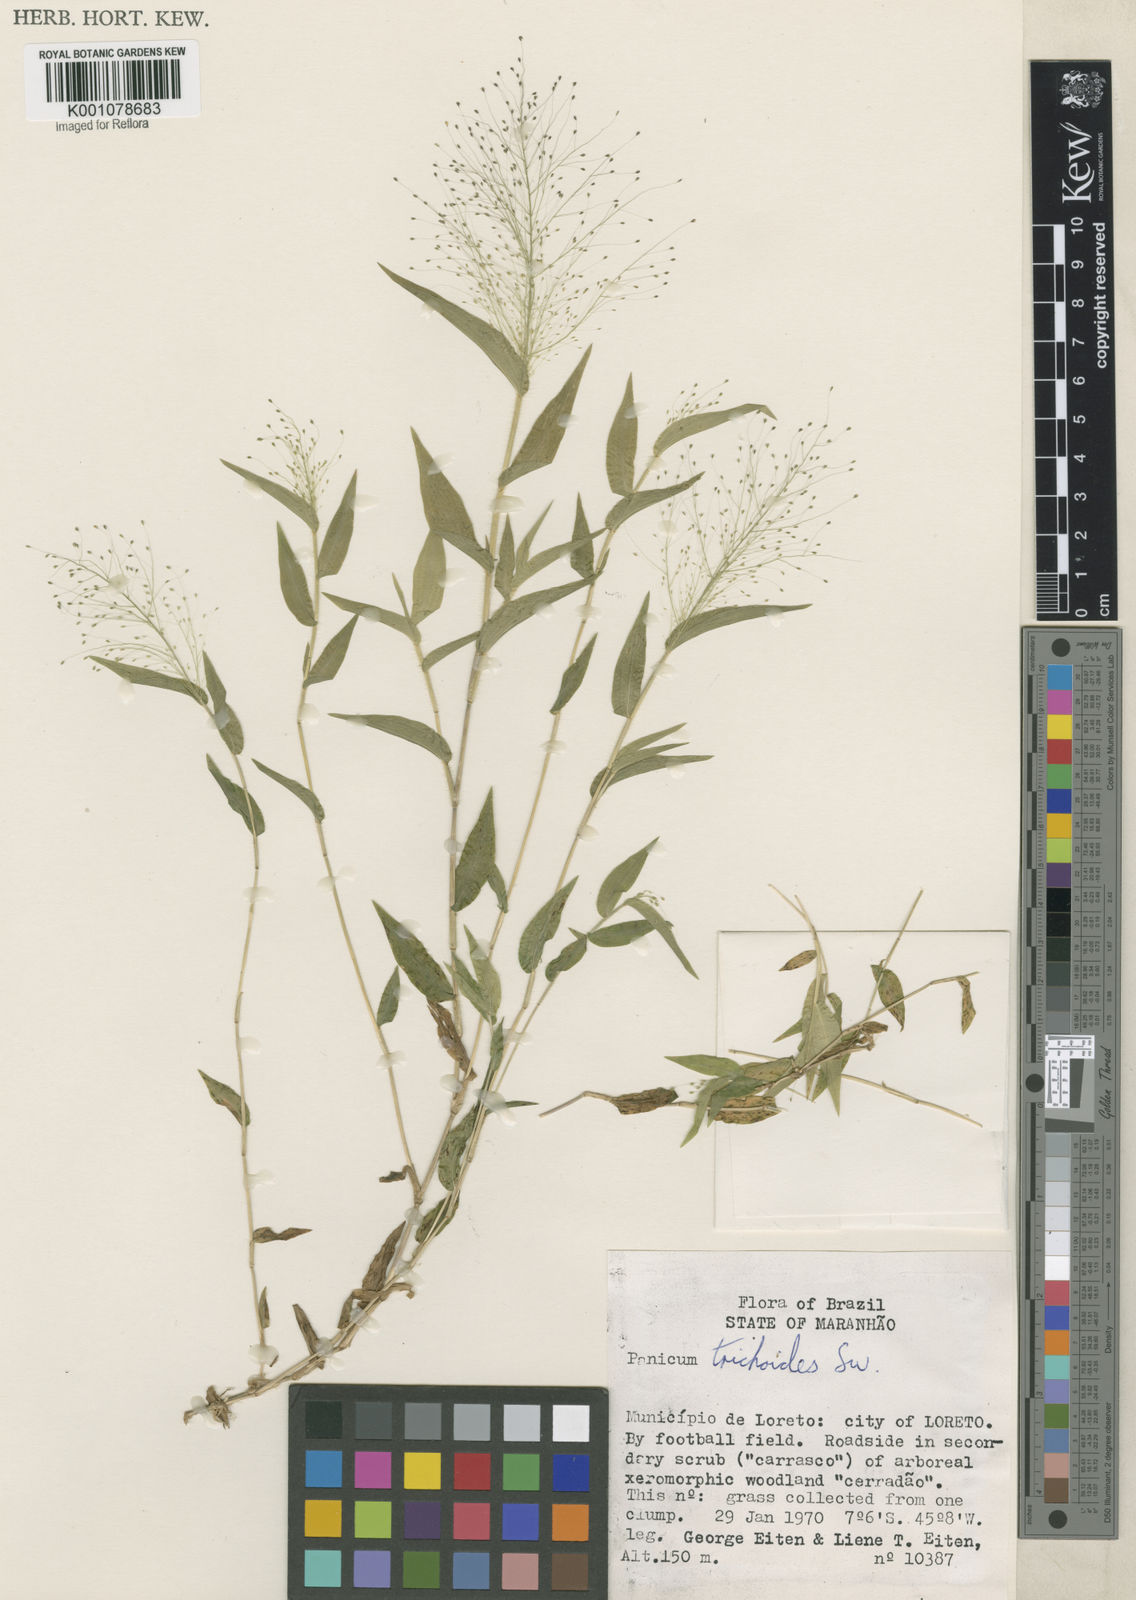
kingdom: Plantae
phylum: Tracheophyta
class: Liliopsida
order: Poales
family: Poaceae
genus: Panicum
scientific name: Panicum trichoides
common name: Tickle grass
